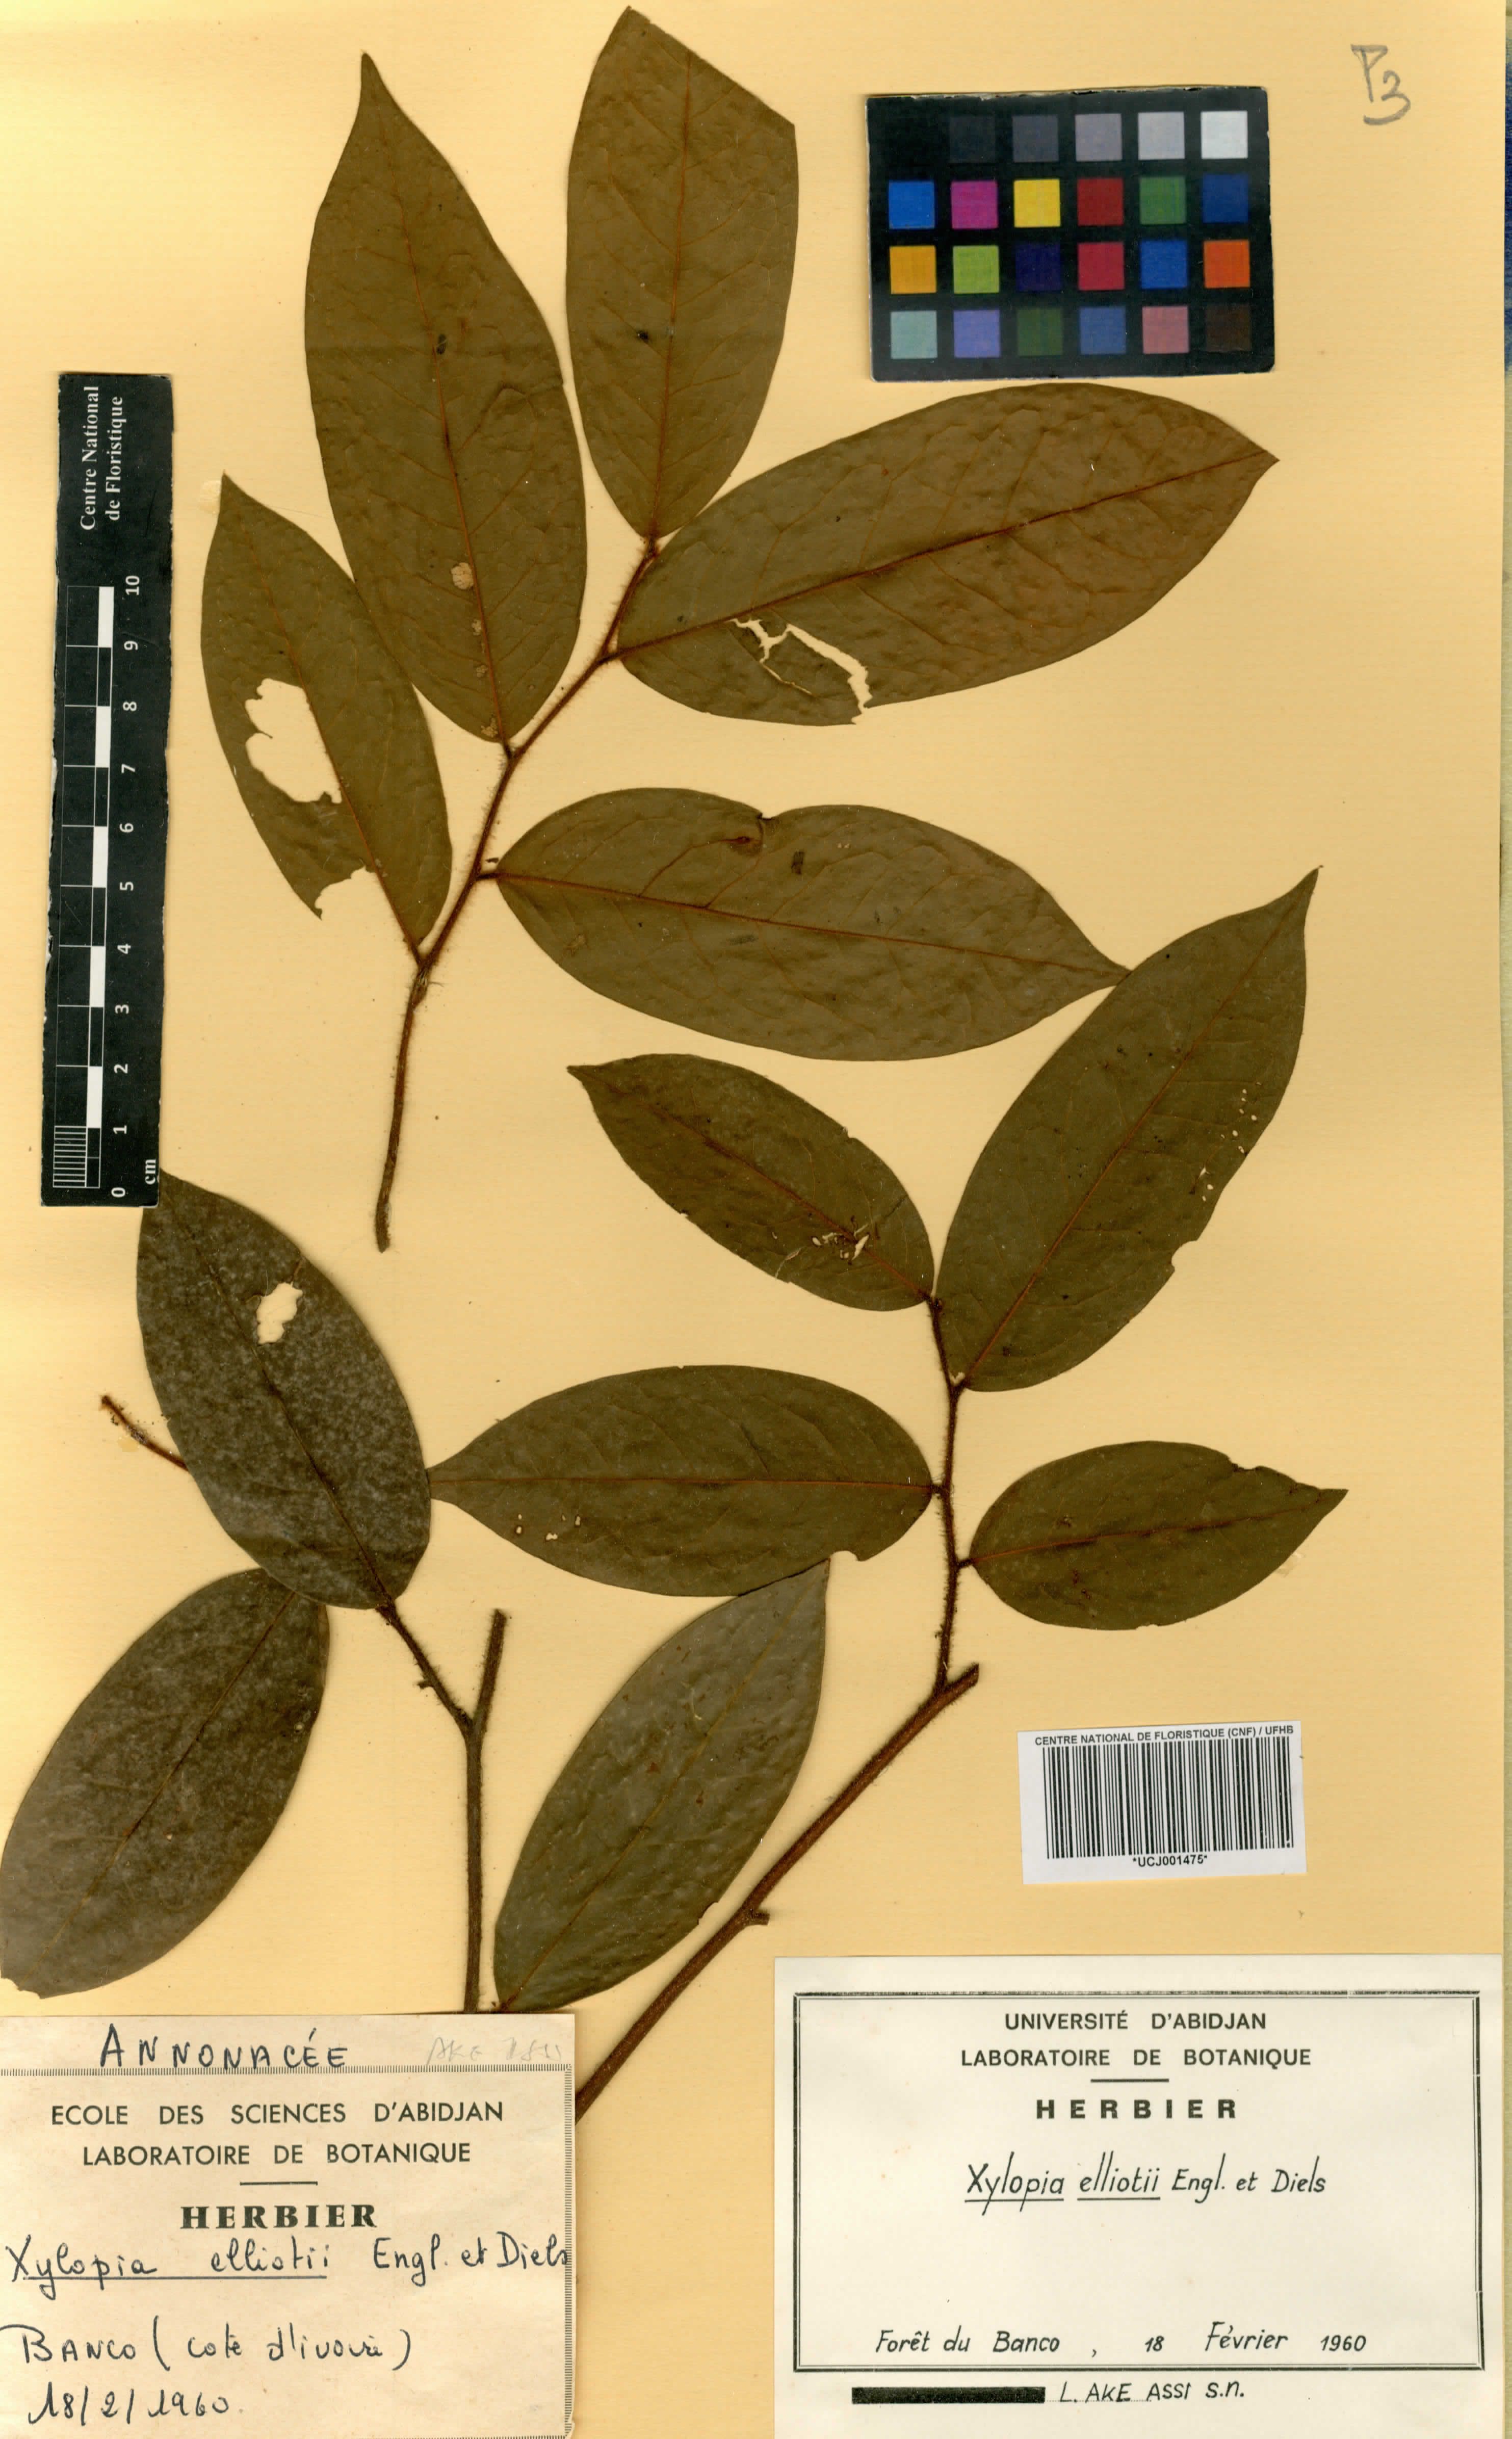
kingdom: Plantae
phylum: Tracheophyta
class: Magnoliopsida
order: Magnoliales
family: Annonaceae
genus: Xylopia
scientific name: Xylopia elliotii
